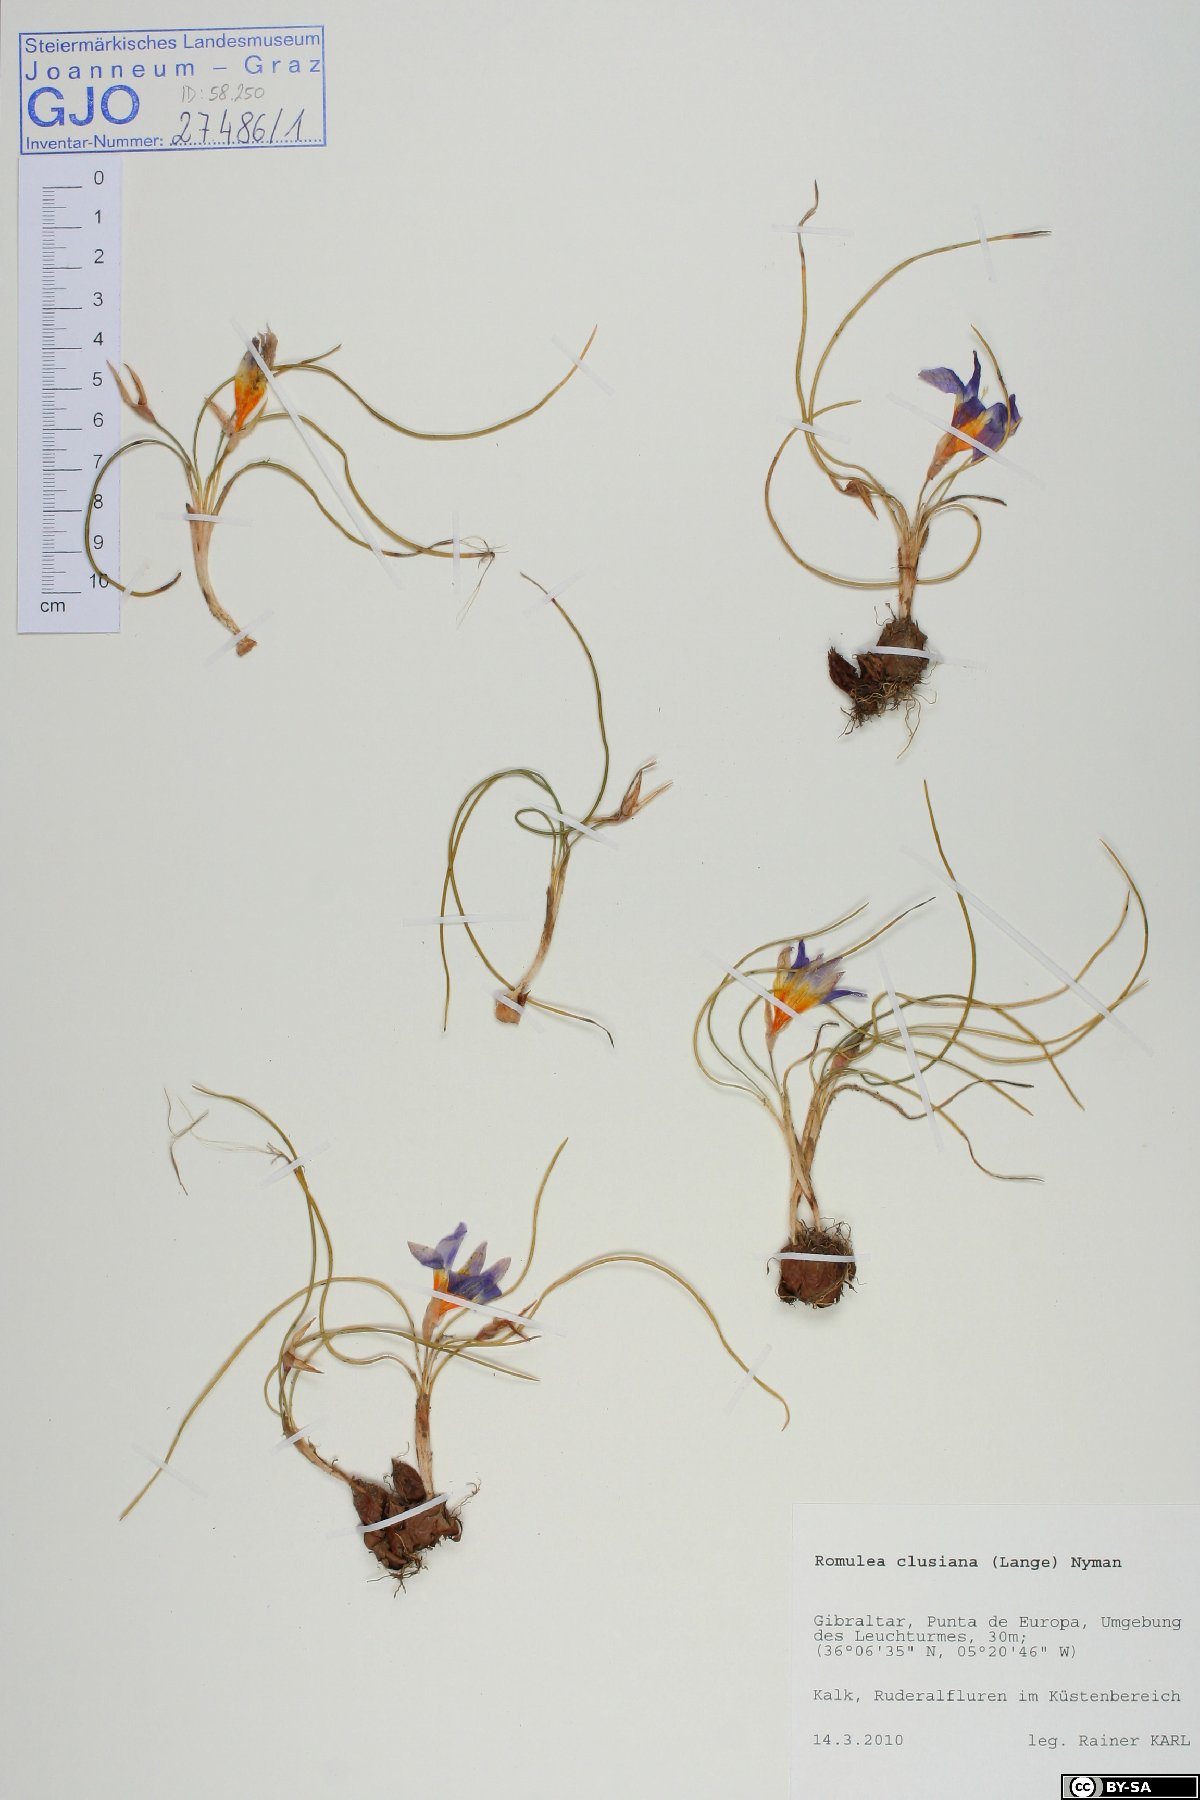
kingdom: Plantae
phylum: Tracheophyta
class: Liliopsida
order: Asparagales
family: Iridaceae
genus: Romulea
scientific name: Romulea clusiana
